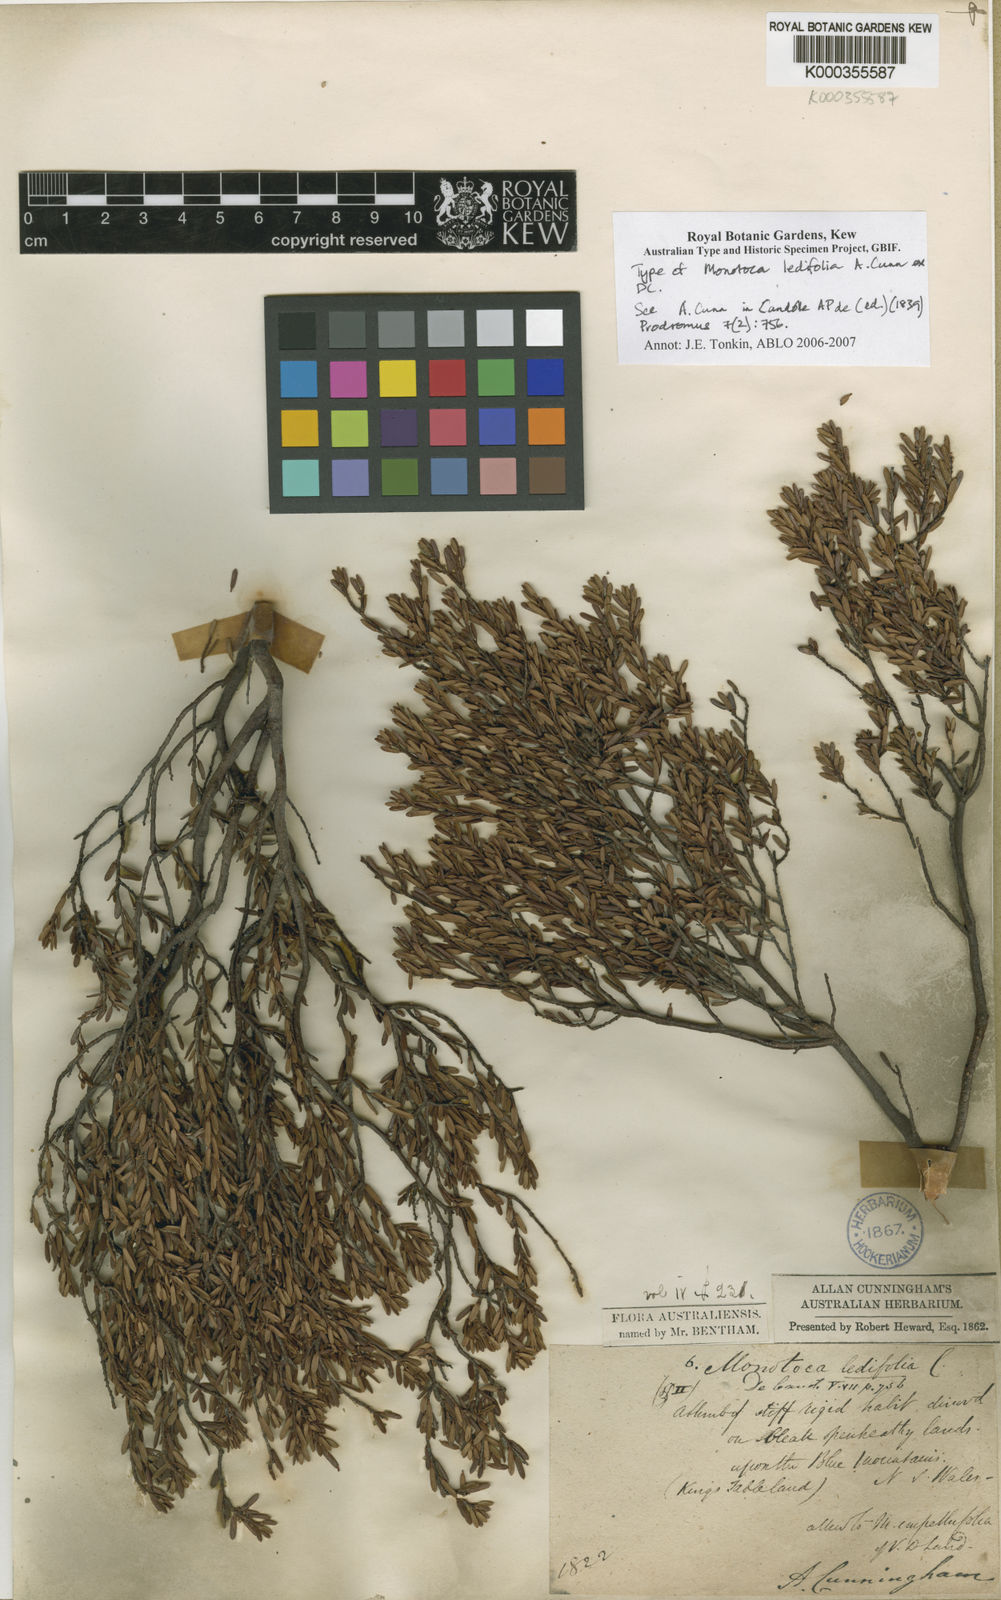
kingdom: Plantae
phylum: Tracheophyta
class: Magnoliopsida
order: Ericales
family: Ericaceae
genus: Monotoca
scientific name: Monotoca ledifolia
